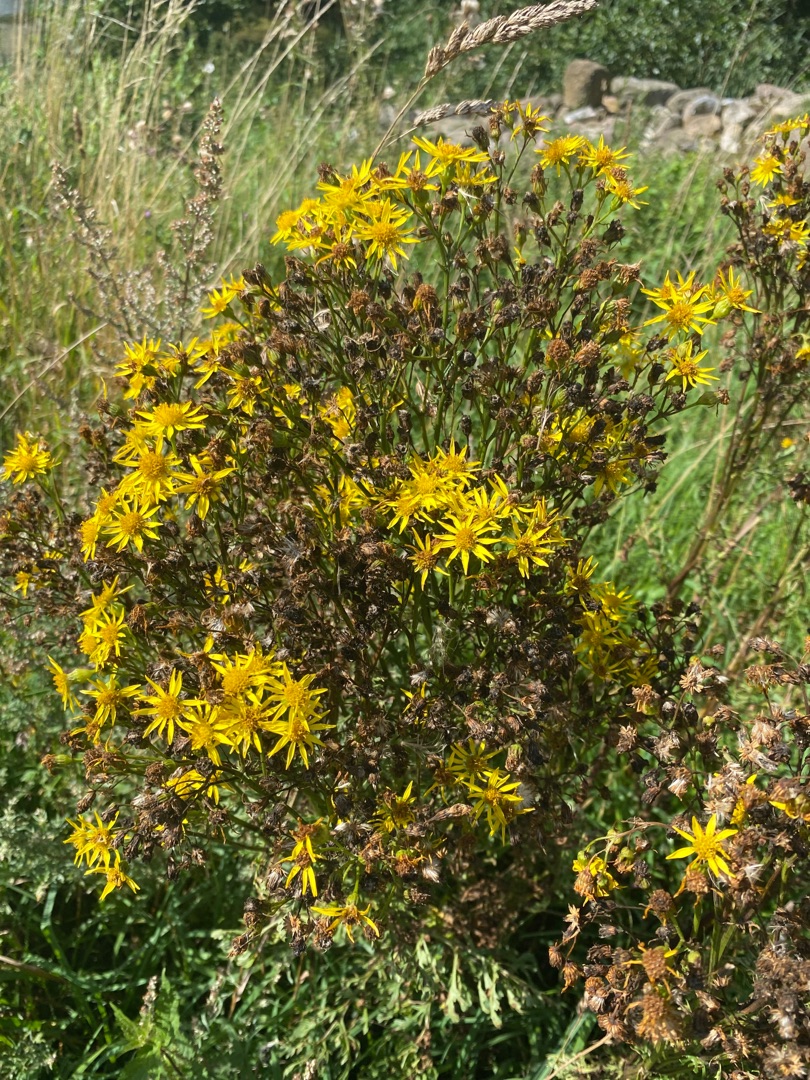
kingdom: Plantae
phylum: Tracheophyta
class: Magnoliopsida
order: Asterales
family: Asteraceae
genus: Jacobaea
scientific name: Jacobaea vulgaris
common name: Eng-brandbæger
